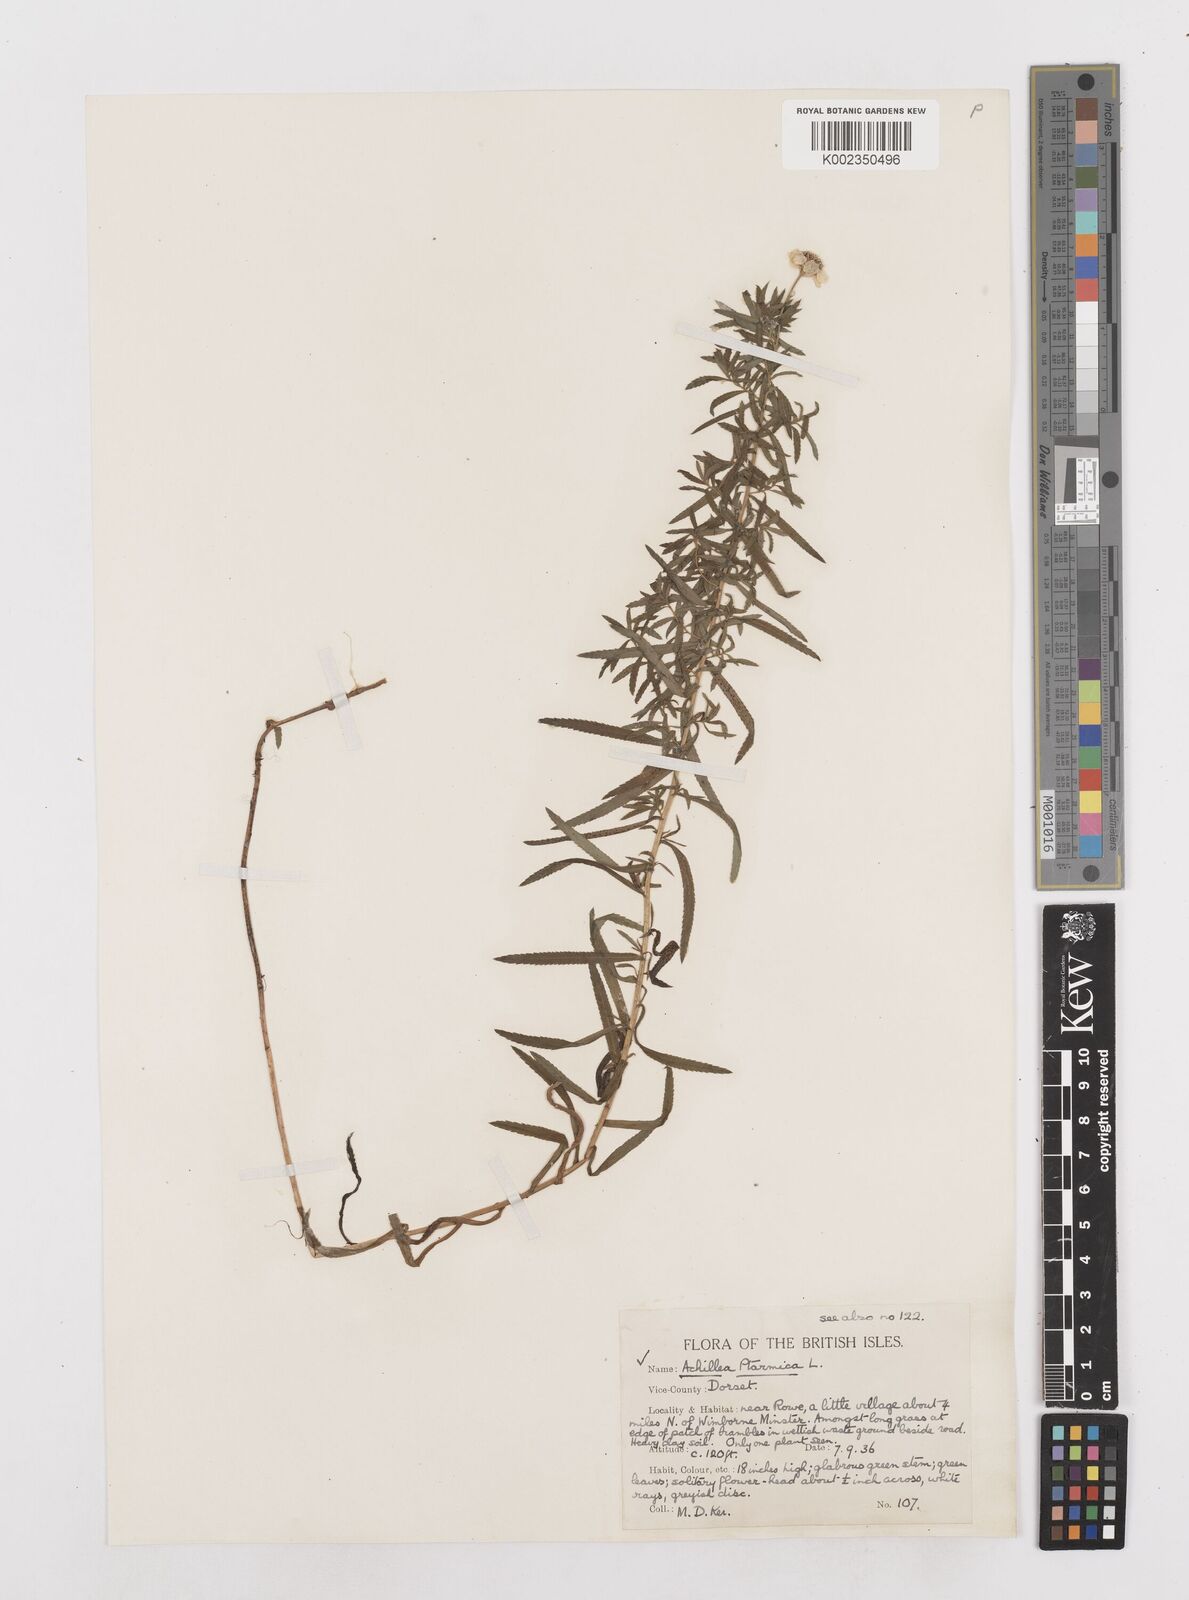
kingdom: Plantae
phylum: Tracheophyta
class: Magnoliopsida
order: Asterales
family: Asteraceae
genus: Achillea
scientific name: Achillea ptarmica
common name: Sneezeweed
